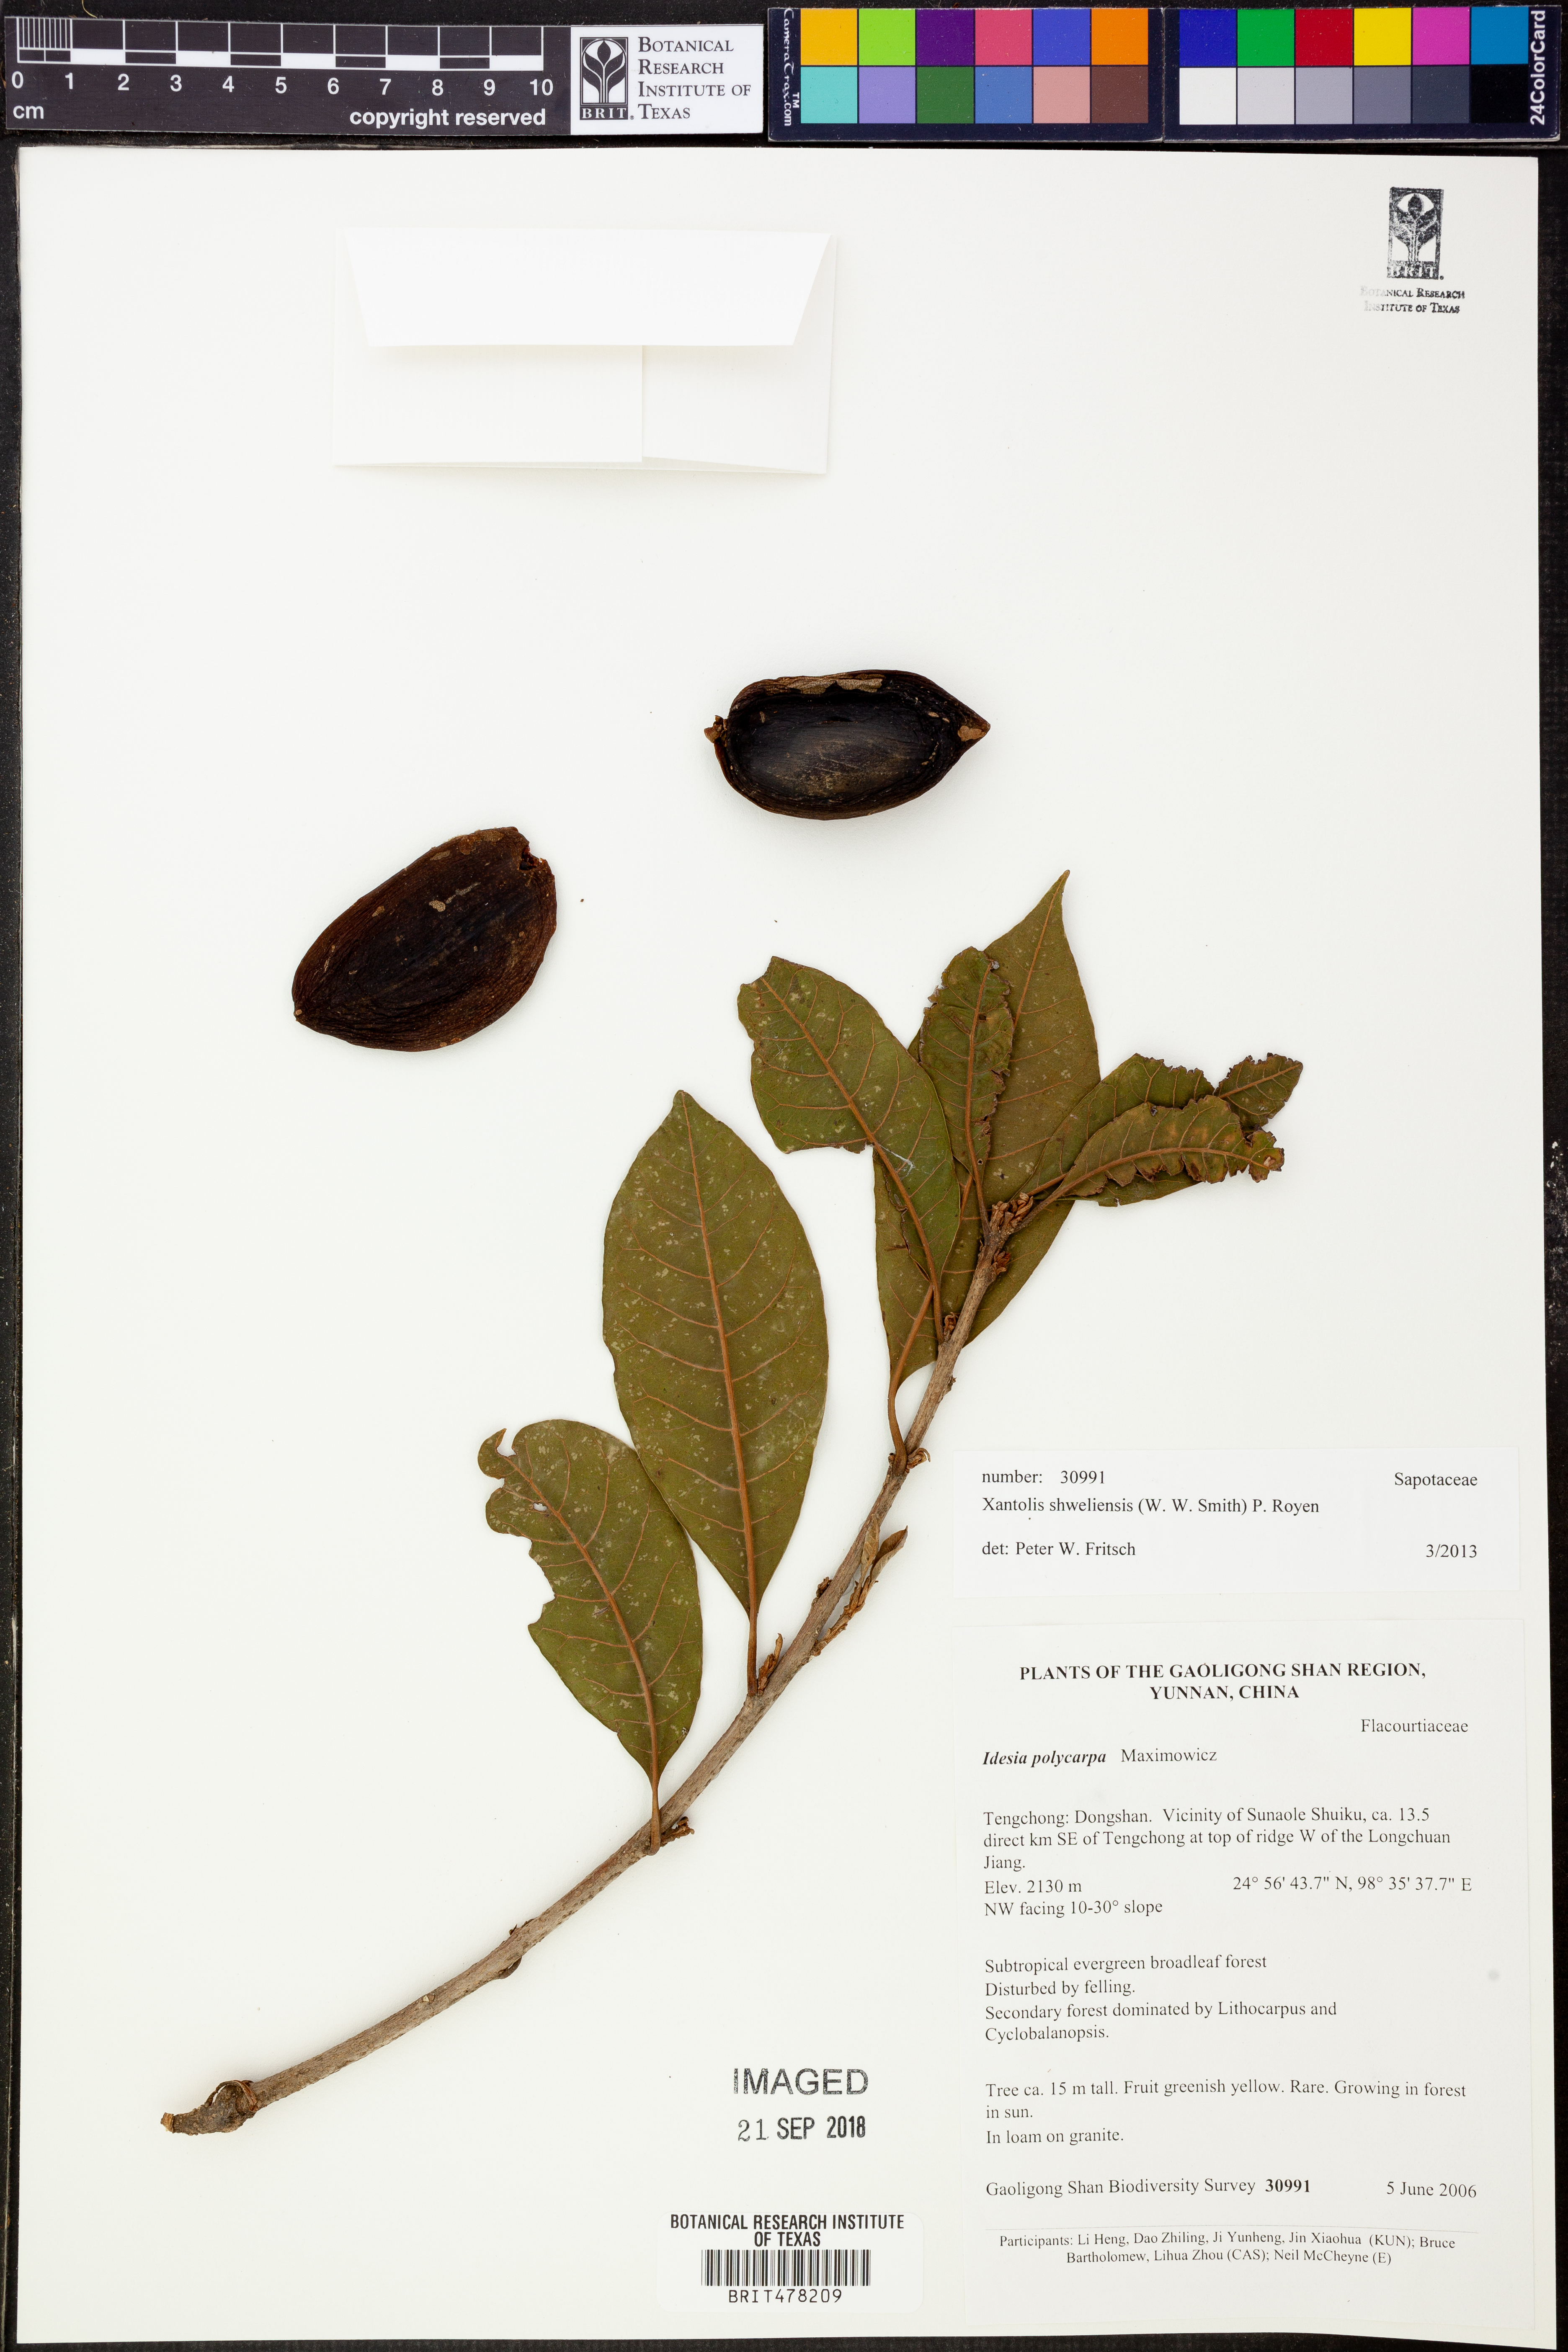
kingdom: Plantae
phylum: Tracheophyta
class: Magnoliopsida
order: Ericales
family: Sapotaceae
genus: Xantolis
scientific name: Xantolis shweliensis
